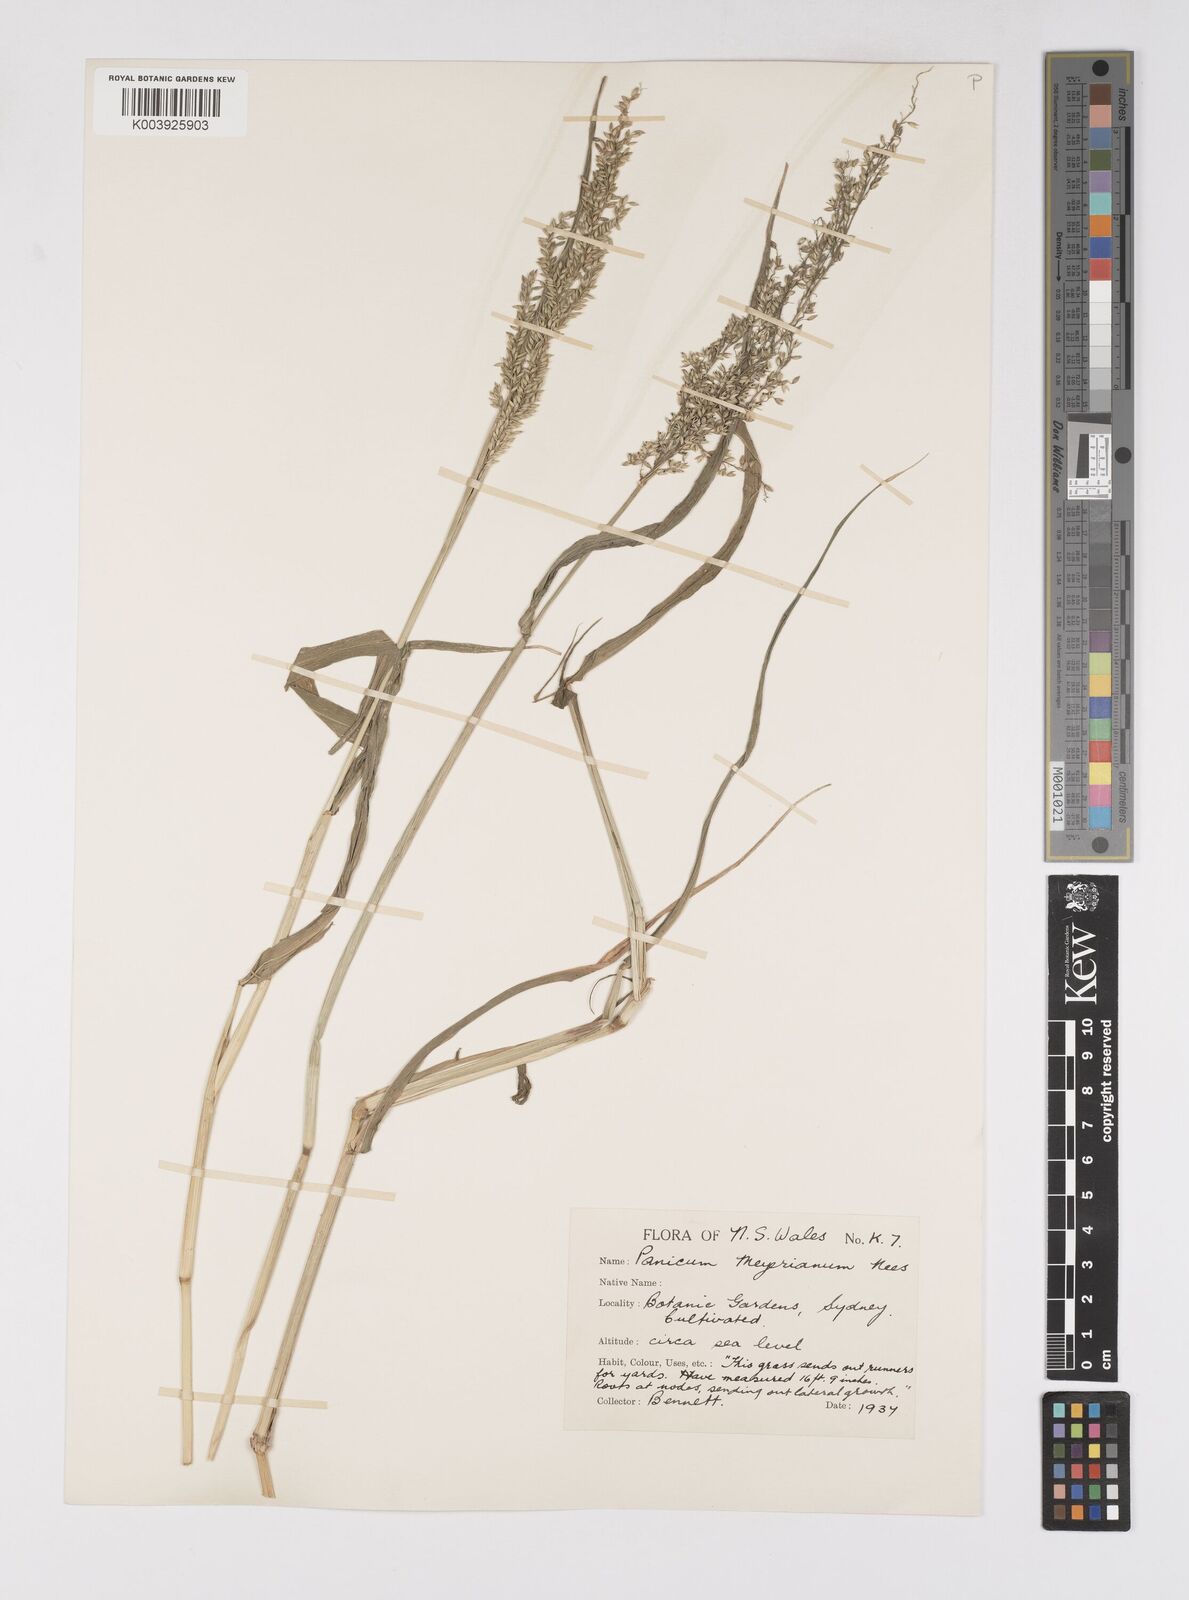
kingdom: Plantae
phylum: Tracheophyta
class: Liliopsida
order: Poales
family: Poaceae
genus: Eriochloa
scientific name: Eriochloa meyeriana
